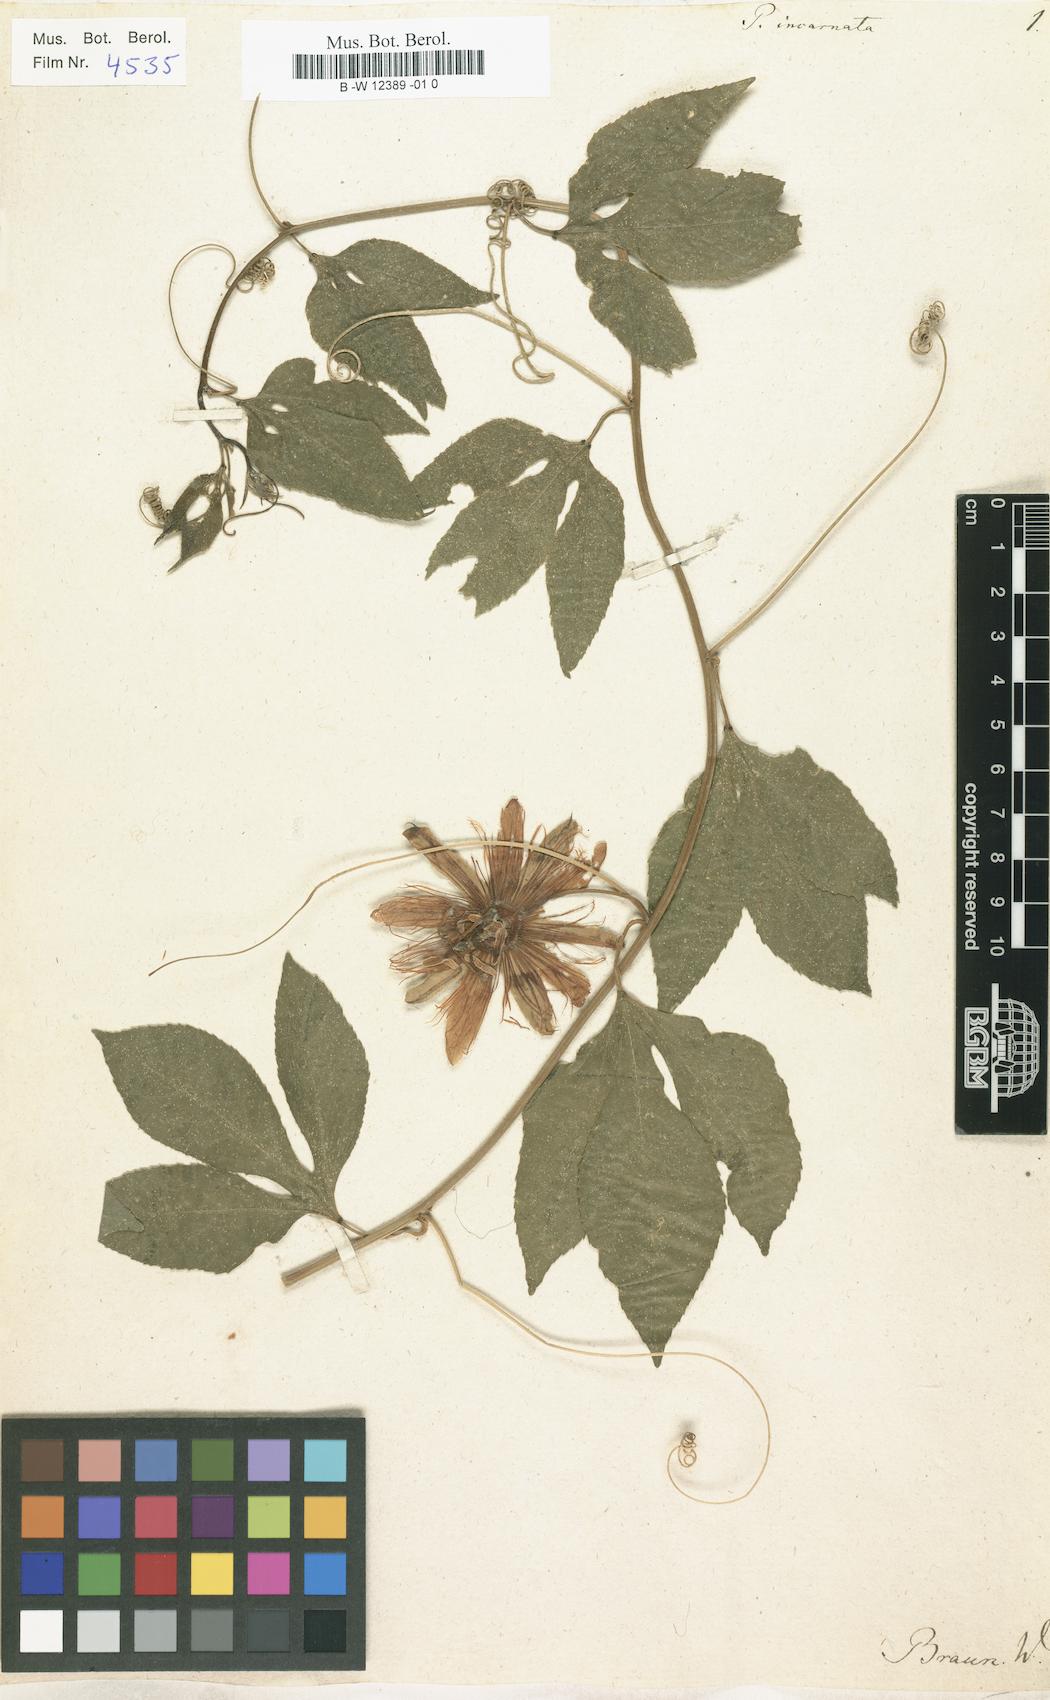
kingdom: Plantae
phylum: Tracheophyta
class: Magnoliopsida
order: Malpighiales
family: Passifloraceae
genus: Passiflora
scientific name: Passiflora incarnata
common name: Apricot-vine
